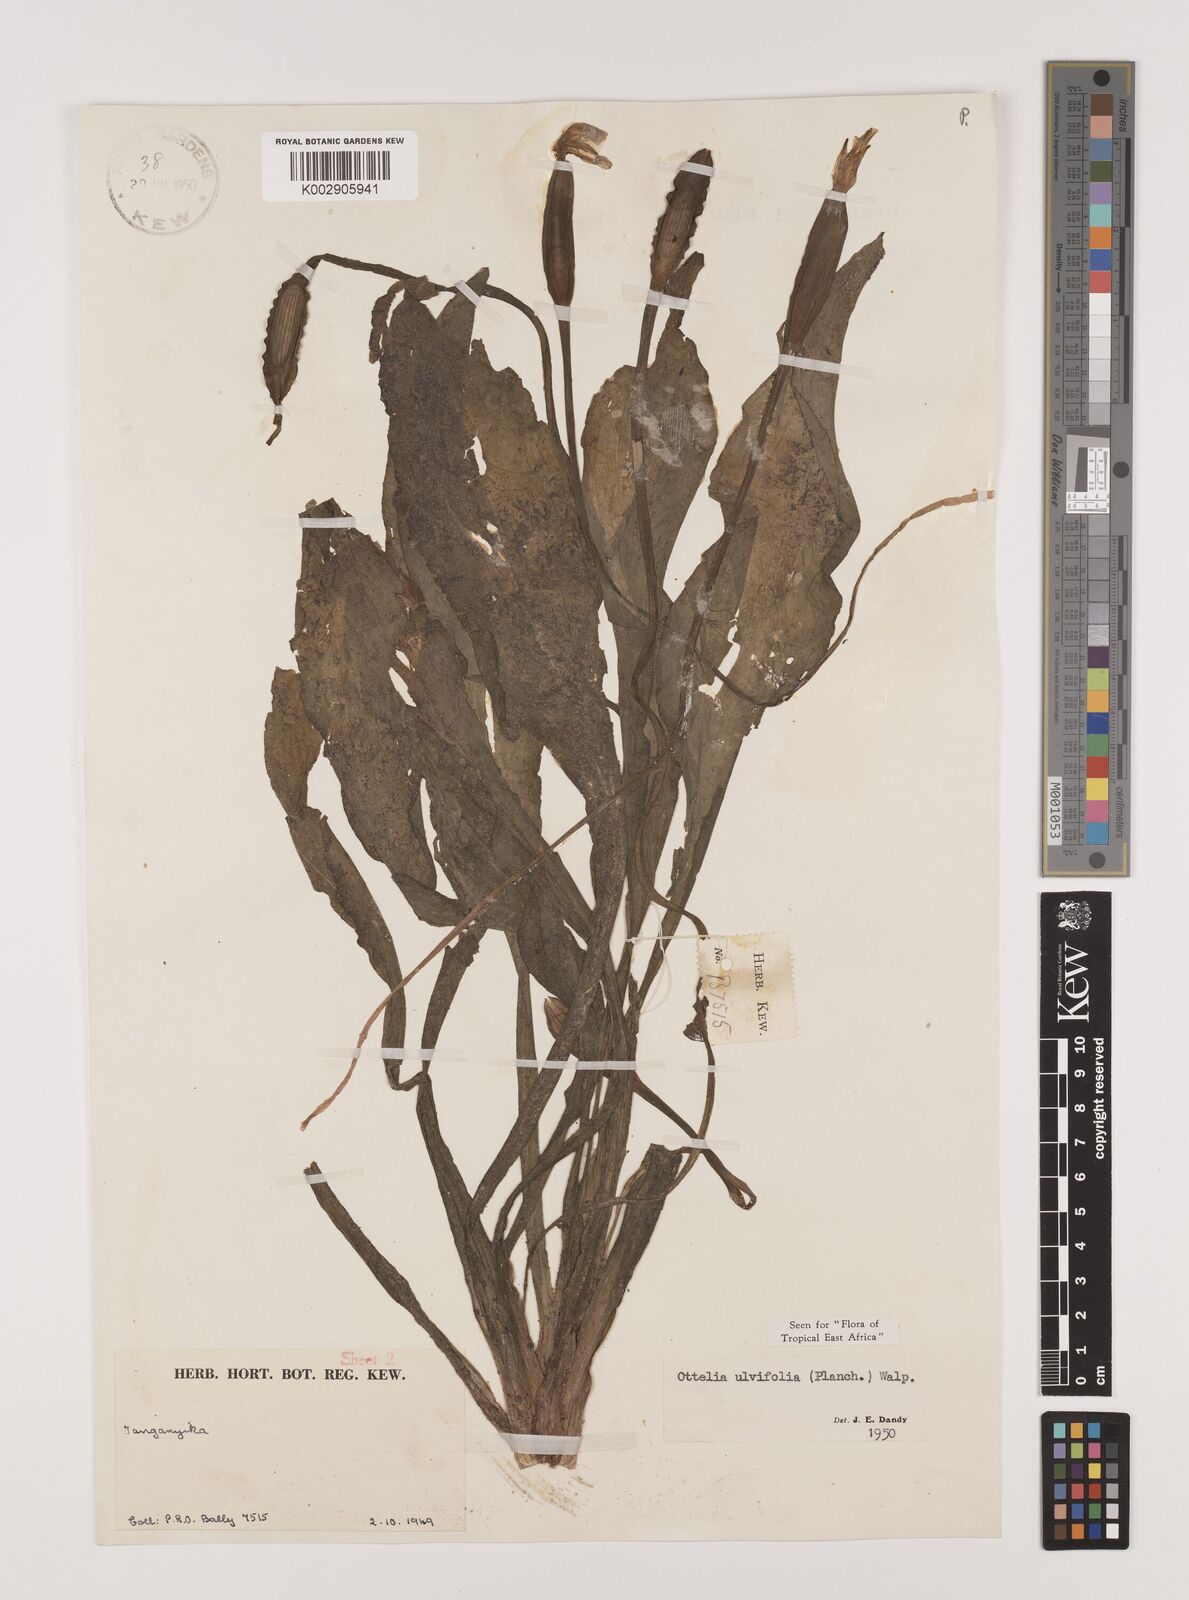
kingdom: Plantae
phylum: Tracheophyta
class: Liliopsida
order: Alismatales
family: Hydrocharitaceae
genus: Ottelia
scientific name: Ottelia ulvifolia
